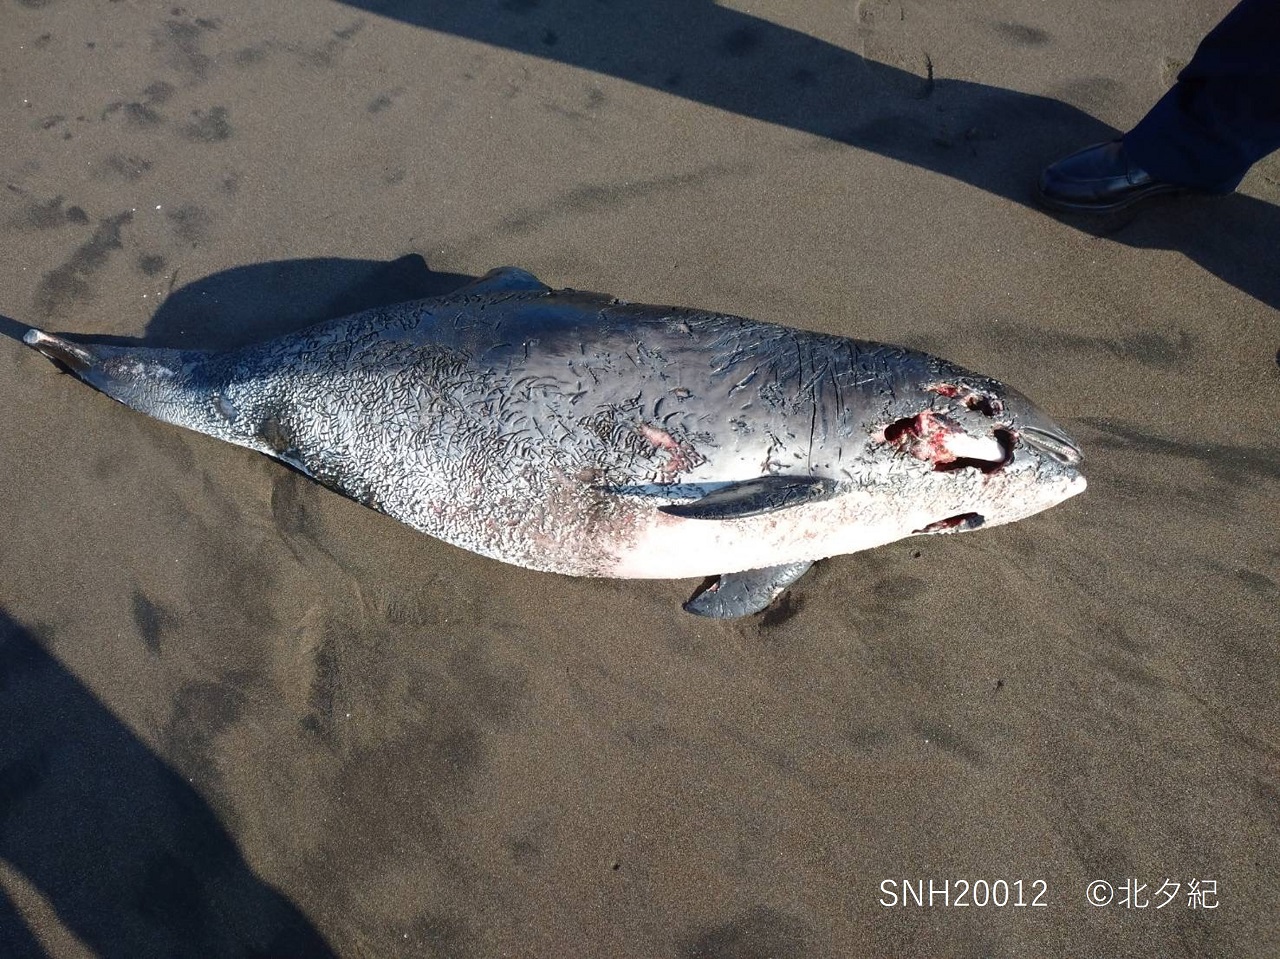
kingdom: Animalia
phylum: Chordata
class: Mammalia
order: Cetacea
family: Phocoenidae
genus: Phocoena
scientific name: Phocoena phocoena
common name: Harbour porpoise
